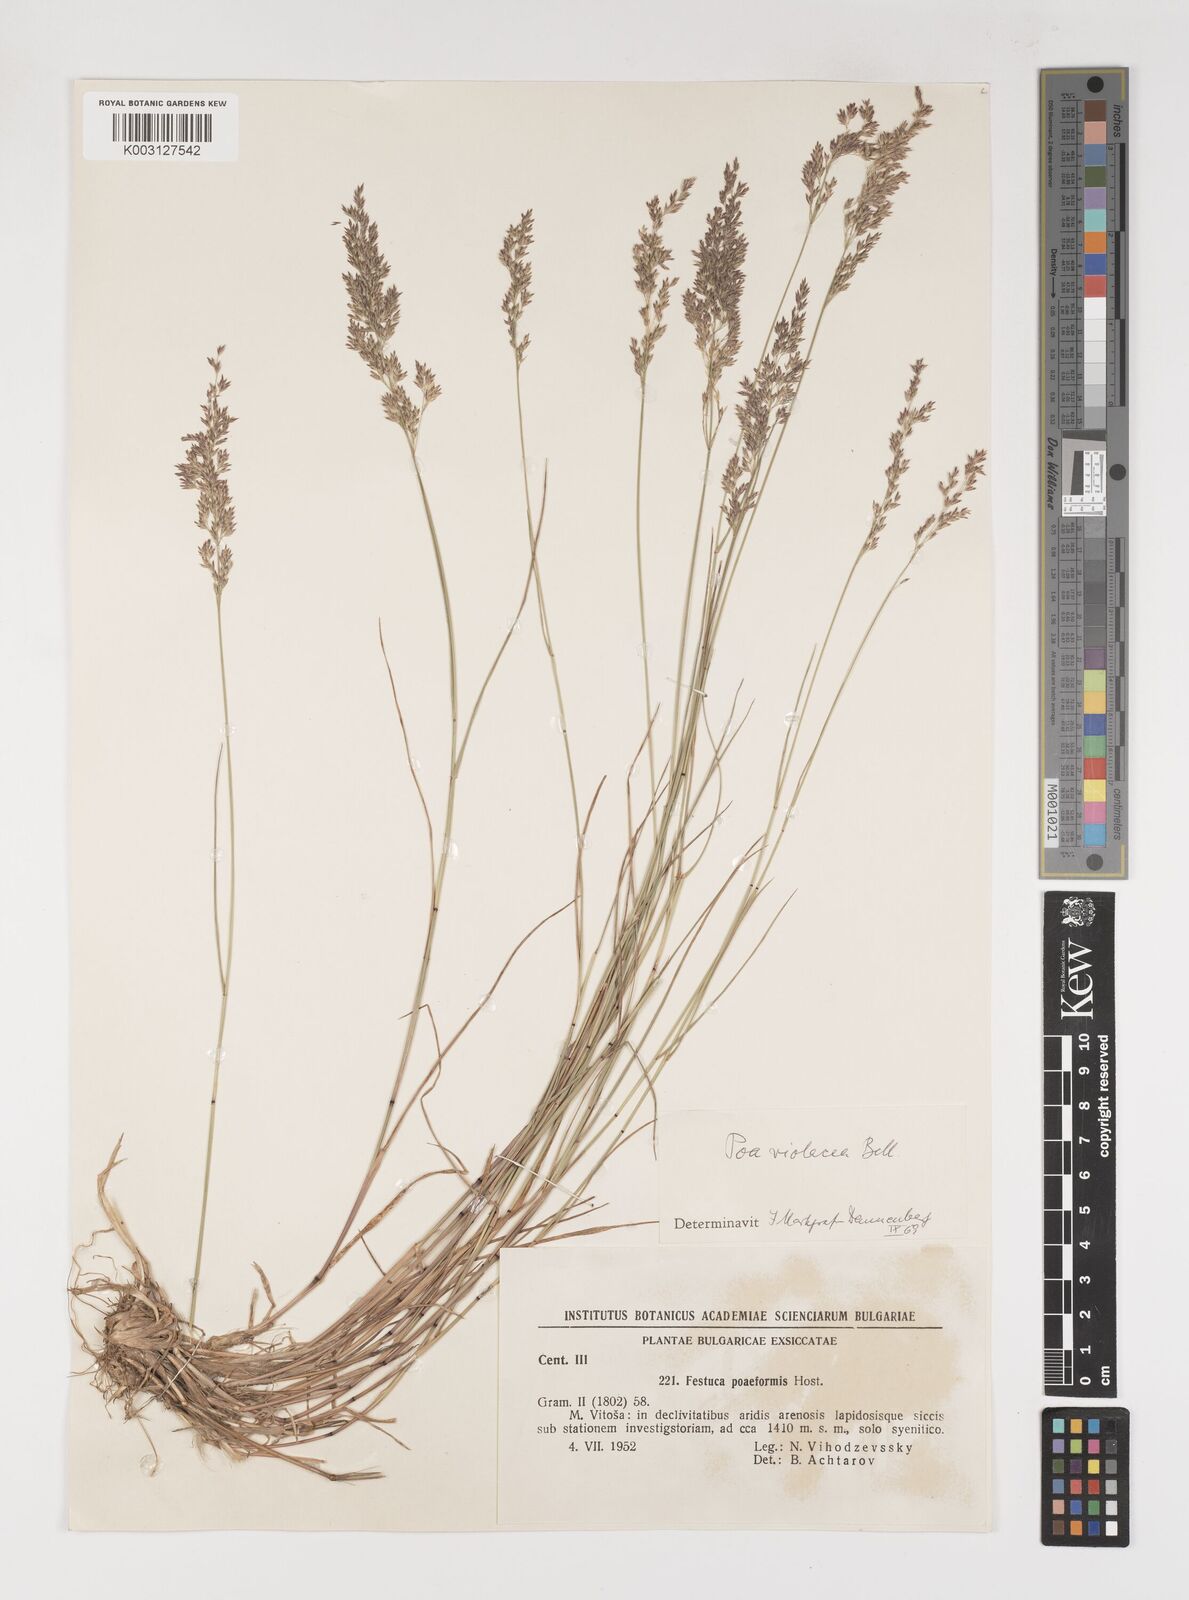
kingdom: Plantae
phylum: Tracheophyta
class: Liliopsida
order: Poales
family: Poaceae
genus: Bellardiochloa
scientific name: Bellardiochloa variegata
